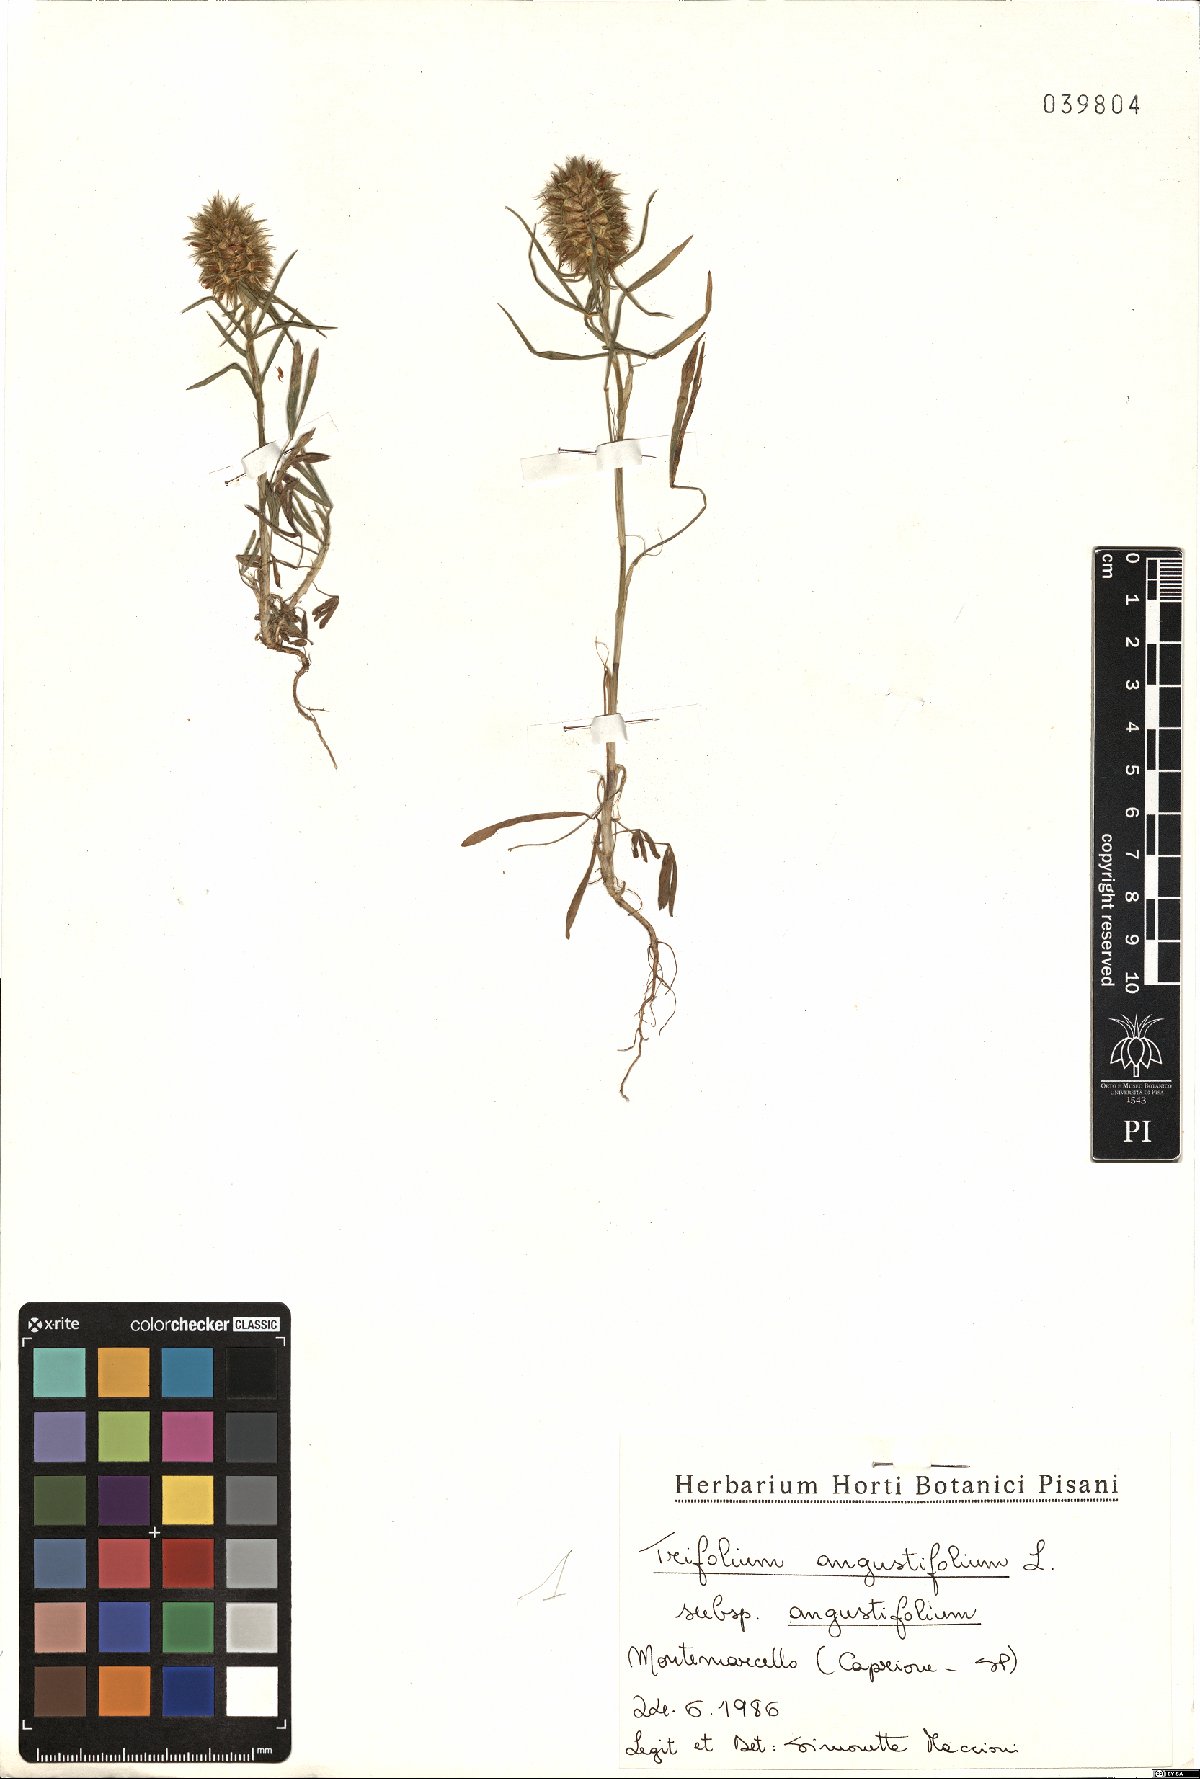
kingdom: Plantae
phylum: Tracheophyta
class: Magnoliopsida
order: Fabales
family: Fabaceae
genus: Trifolium
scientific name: Trifolium angustifolium
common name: Narrow clover
